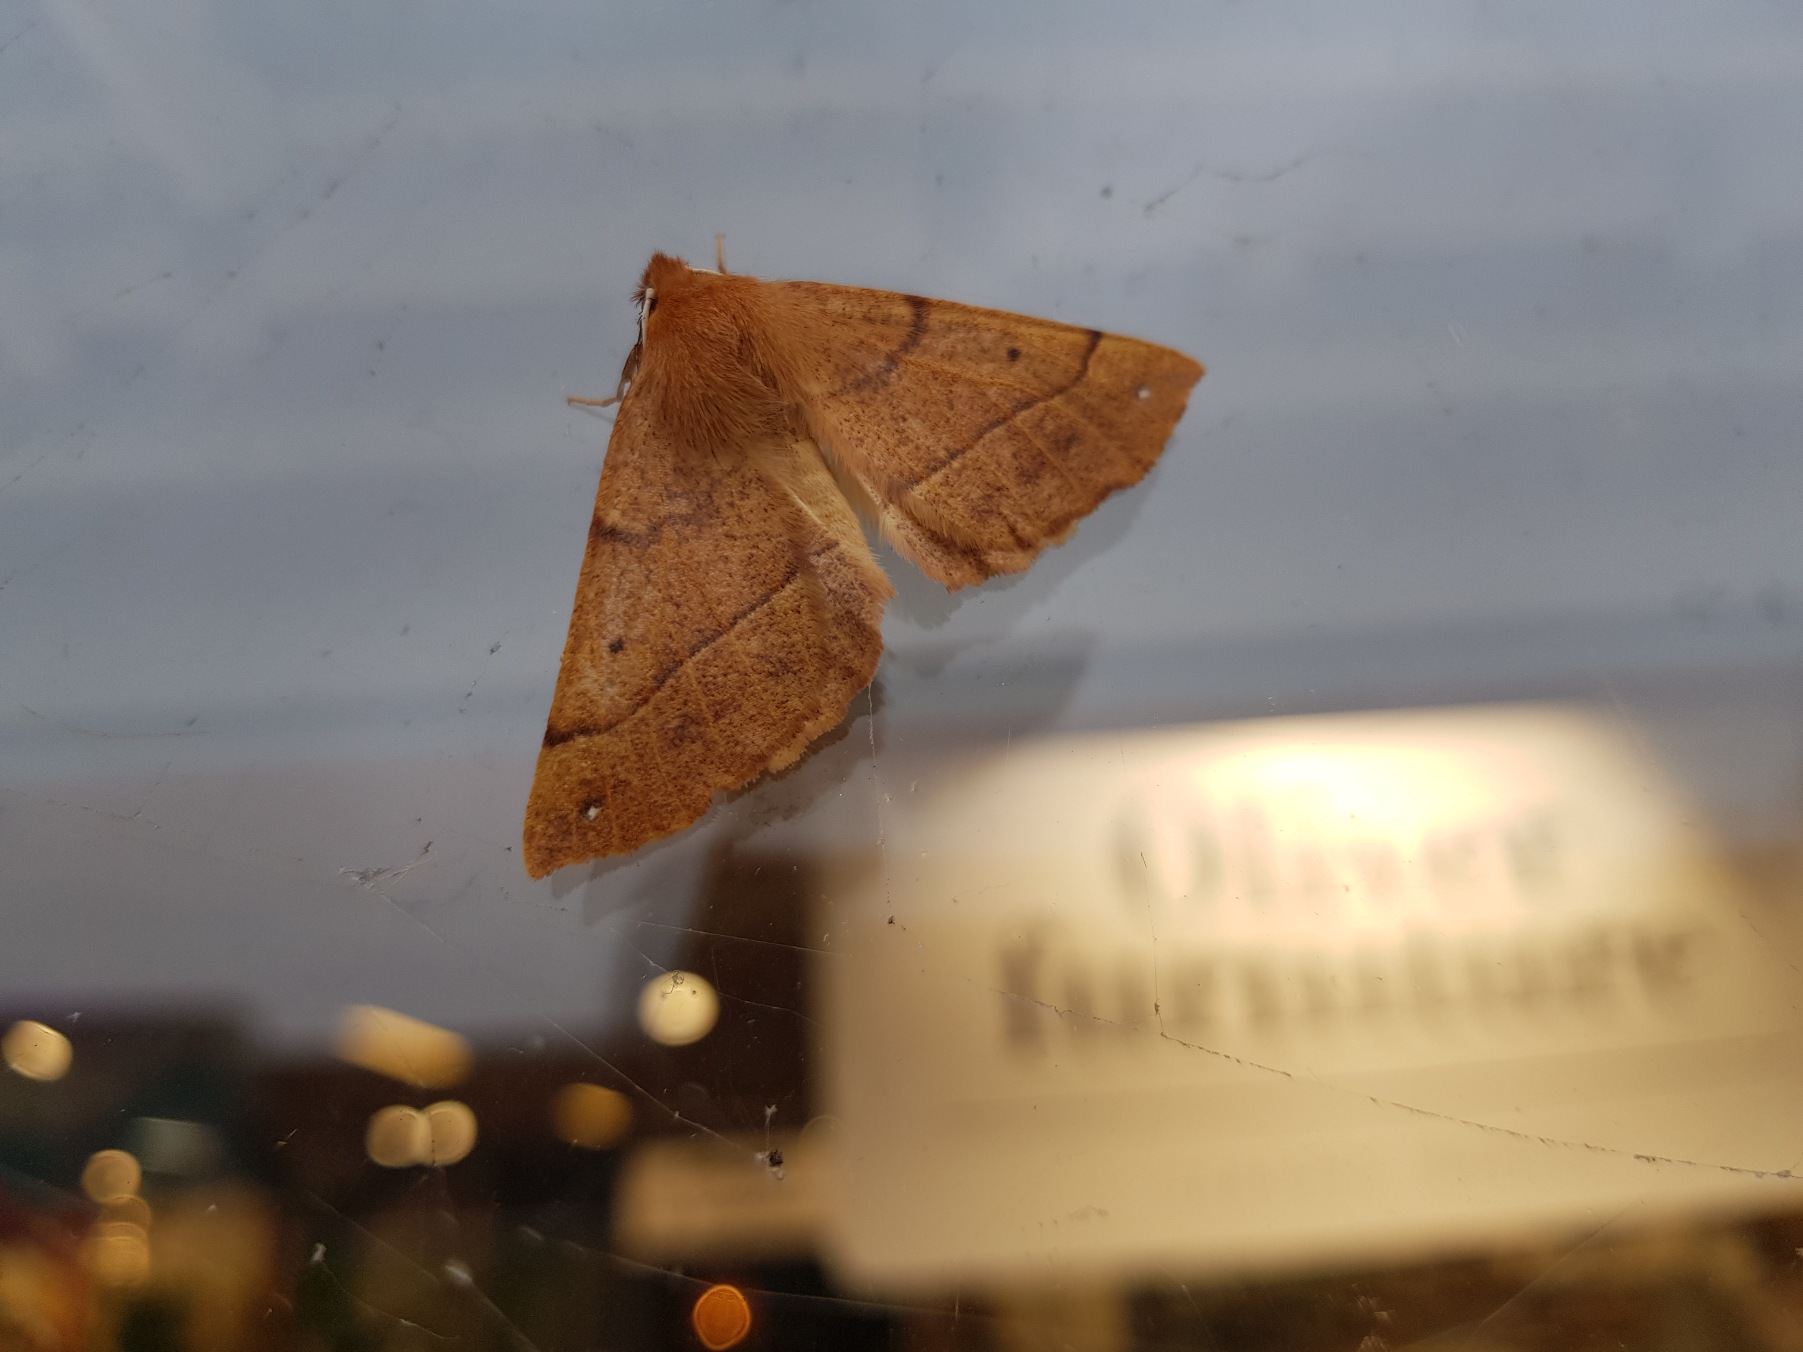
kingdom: Animalia
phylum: Arthropoda
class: Insecta
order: Lepidoptera
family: Geometridae
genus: Colotois
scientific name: Colotois pennaria
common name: Løvfaldsmåler
